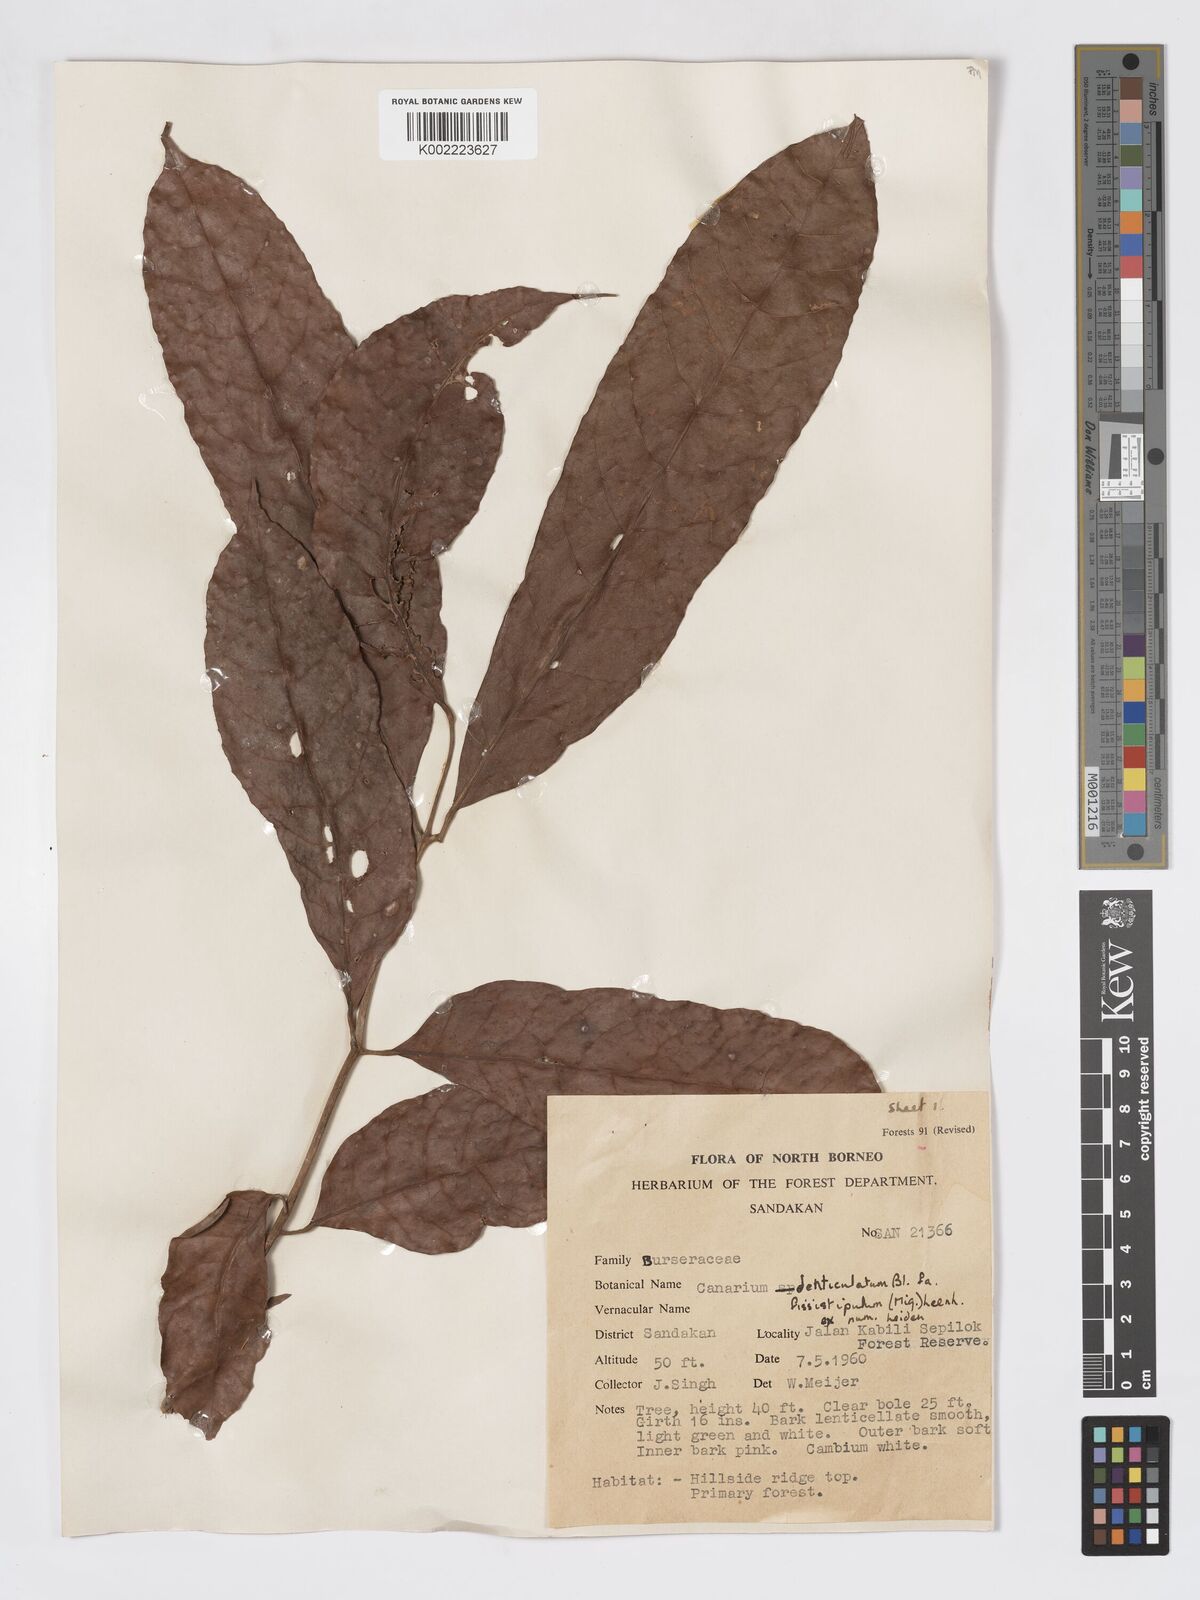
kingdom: Plantae
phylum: Tracheophyta
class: Magnoliopsida
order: Sapindales
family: Burseraceae
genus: Canarium
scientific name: Canarium denticulatum
